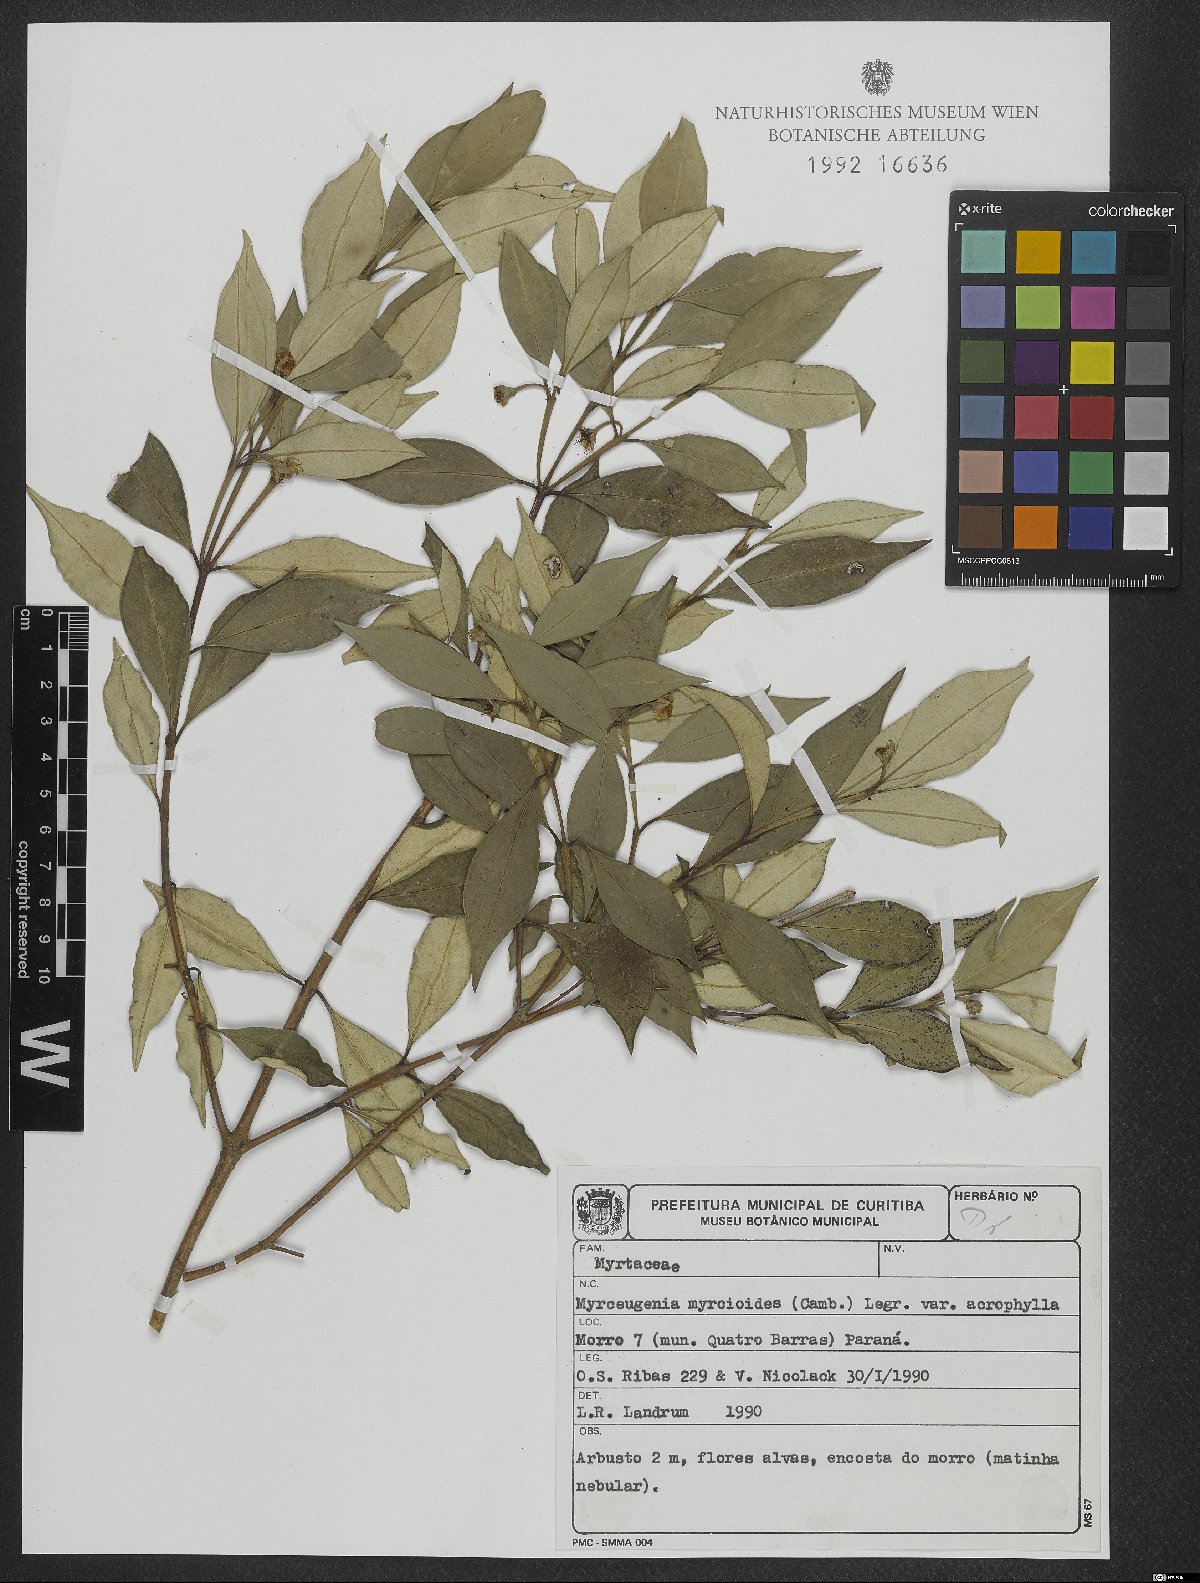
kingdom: Plantae
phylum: Tracheophyta
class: Magnoliopsida
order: Myrtales
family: Myrtaceae
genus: Myrceugenia
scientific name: Myrceugenia myrcioides
